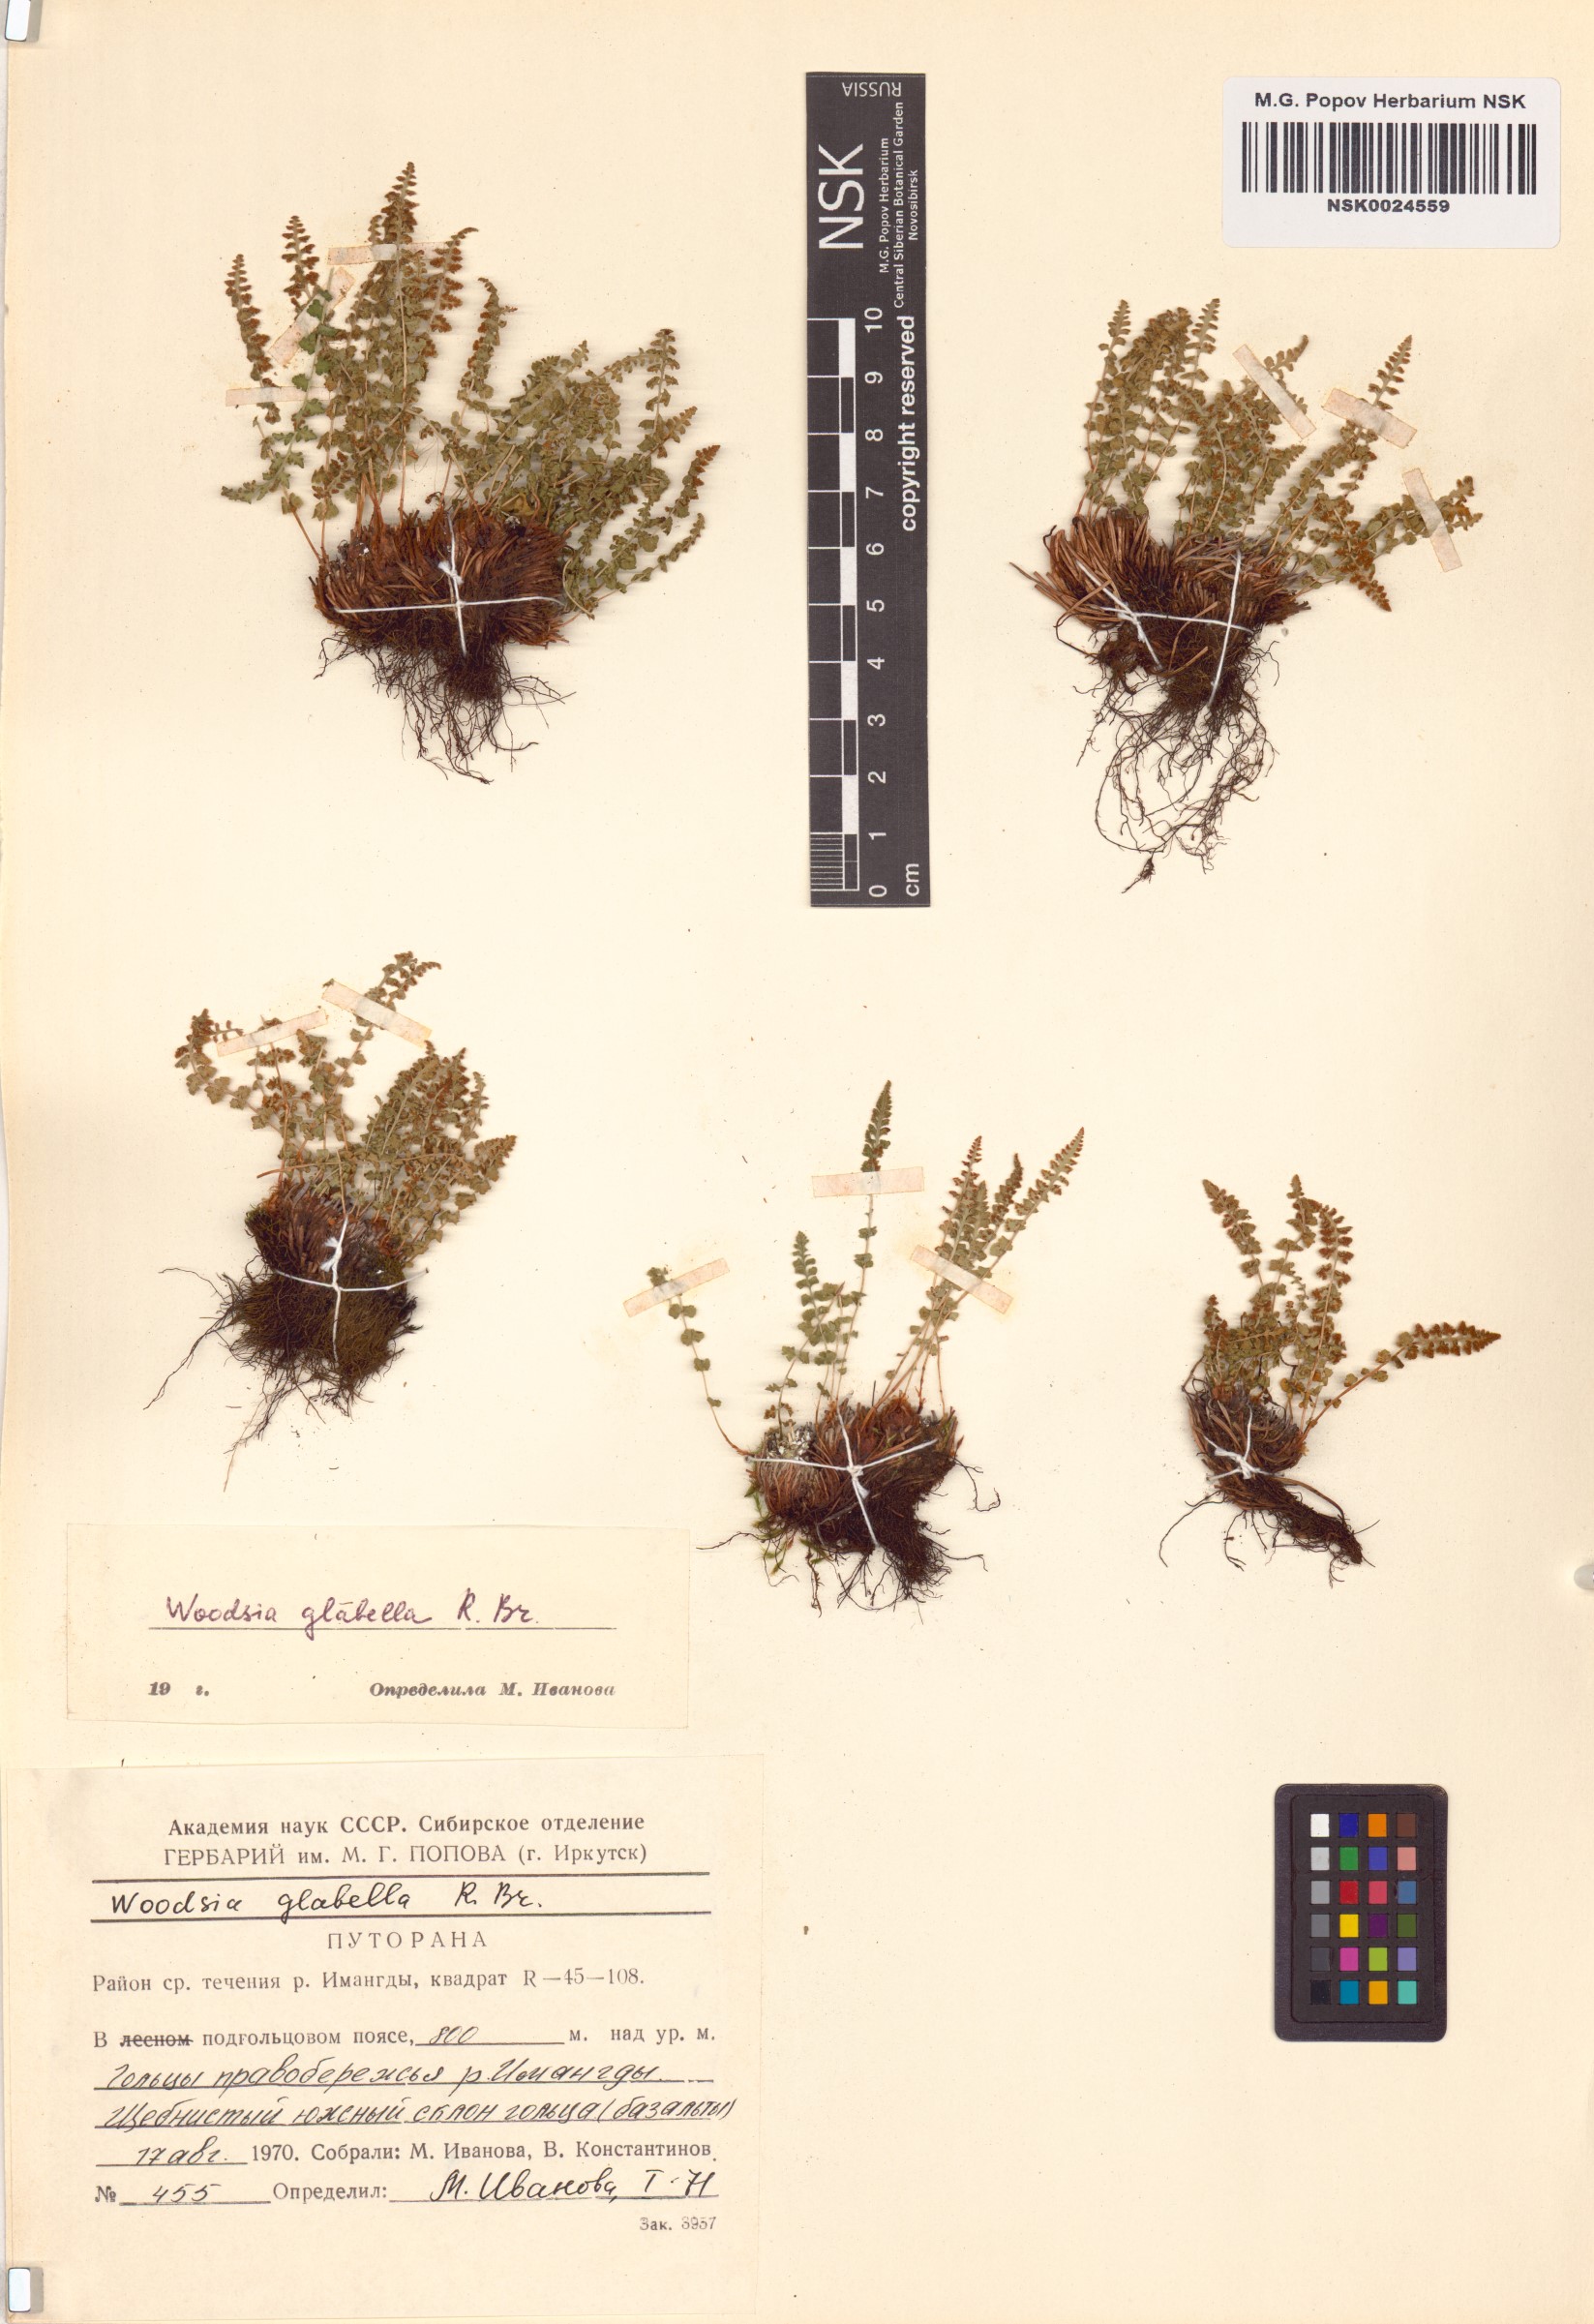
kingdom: Plantae
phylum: Tracheophyta
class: Polypodiopsida
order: Polypodiales
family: Woodsiaceae
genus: Woodsia
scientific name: Woodsia glabella
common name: Smooth woodsia
